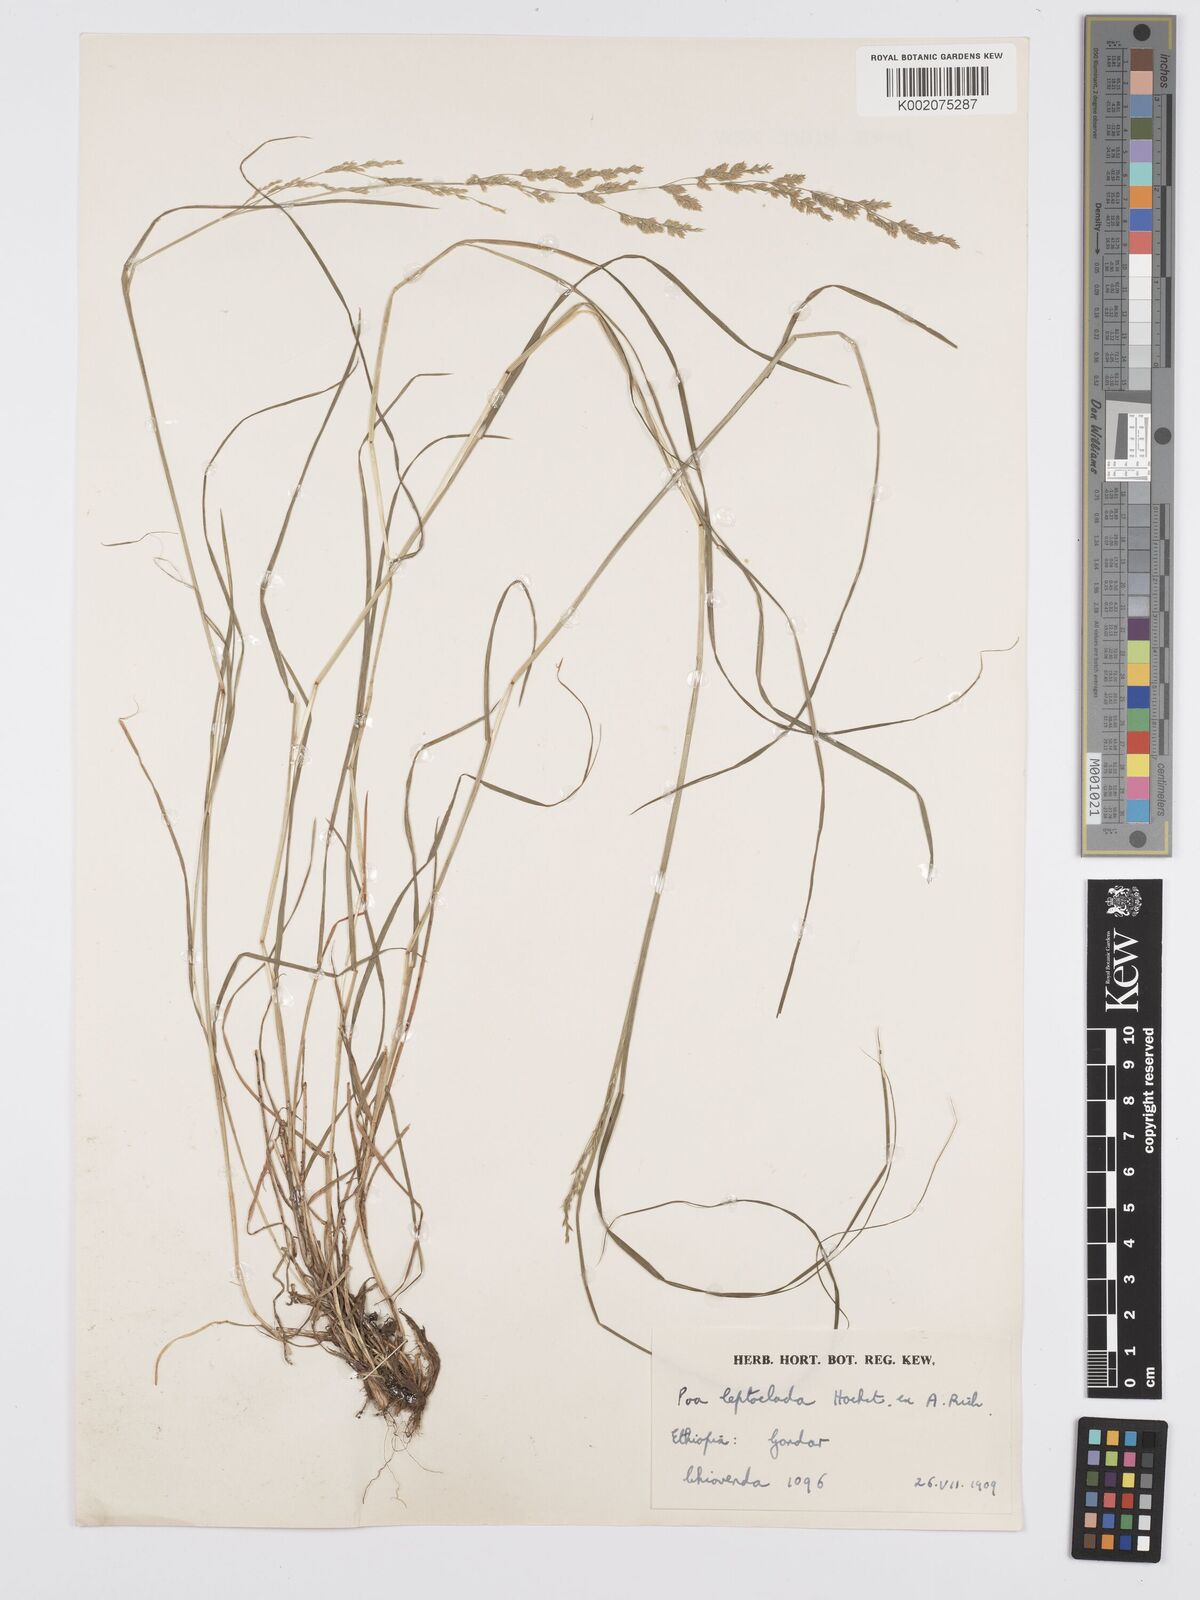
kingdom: Plantae
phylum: Tracheophyta
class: Liliopsida
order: Poales
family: Poaceae
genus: Poa
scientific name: Poa leptoclada
